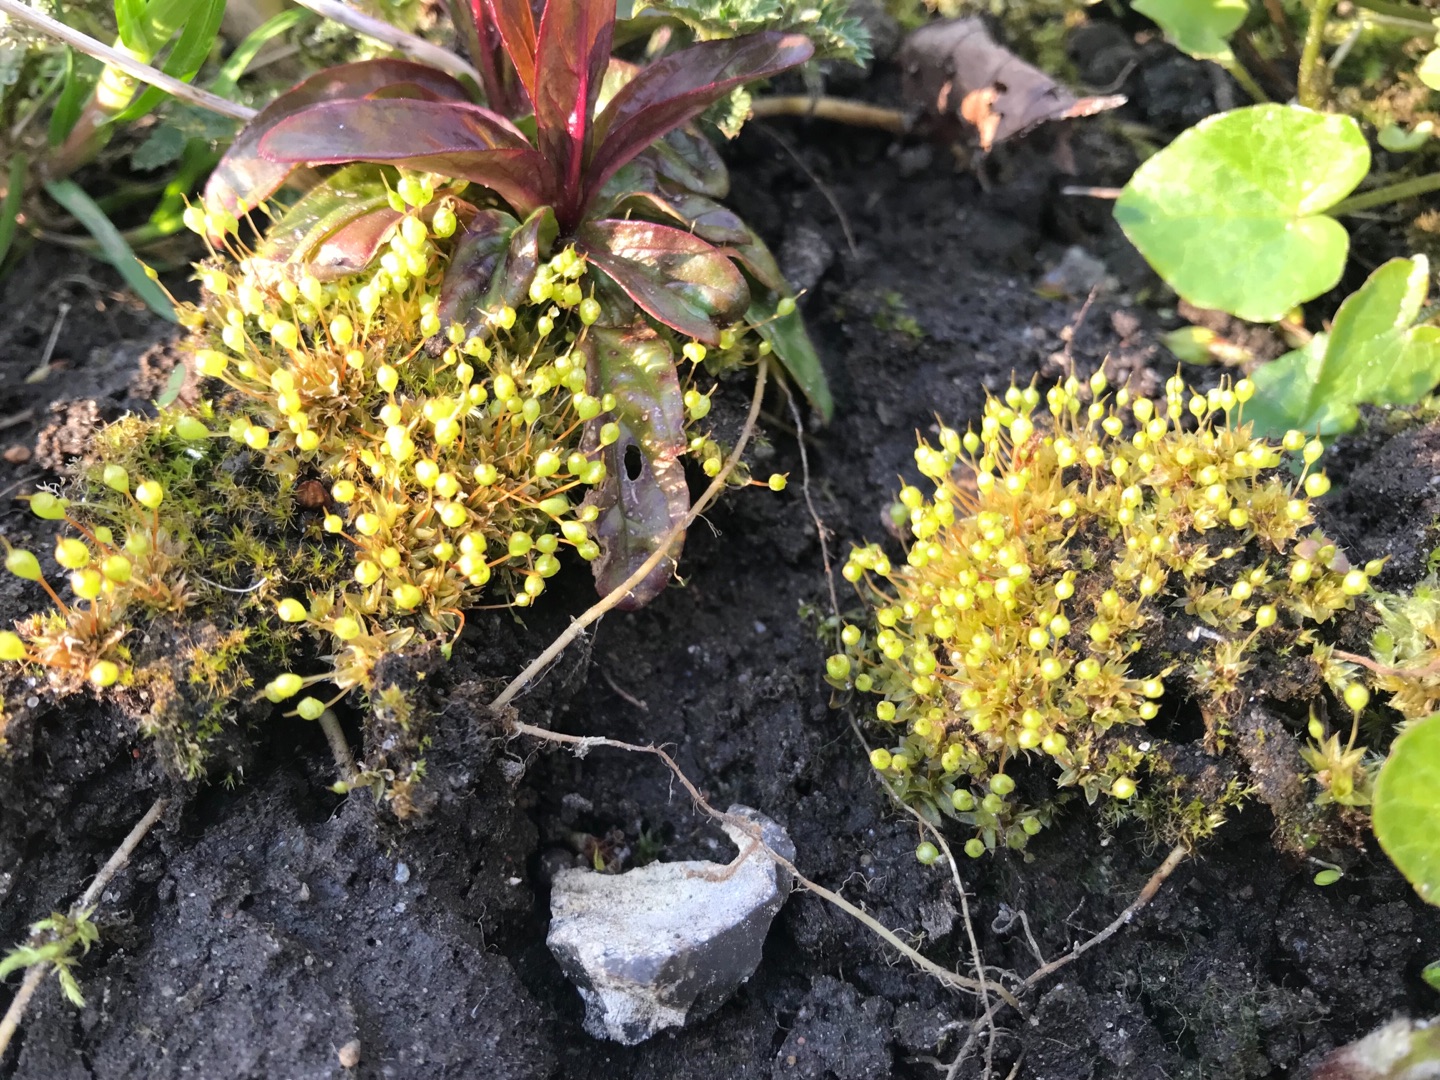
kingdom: Plantae
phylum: Bryophyta
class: Bryopsida
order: Funariales
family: Funariaceae
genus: Physcomitrium
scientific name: Physcomitrium pyriforme
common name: Almindelig pærekapsel
